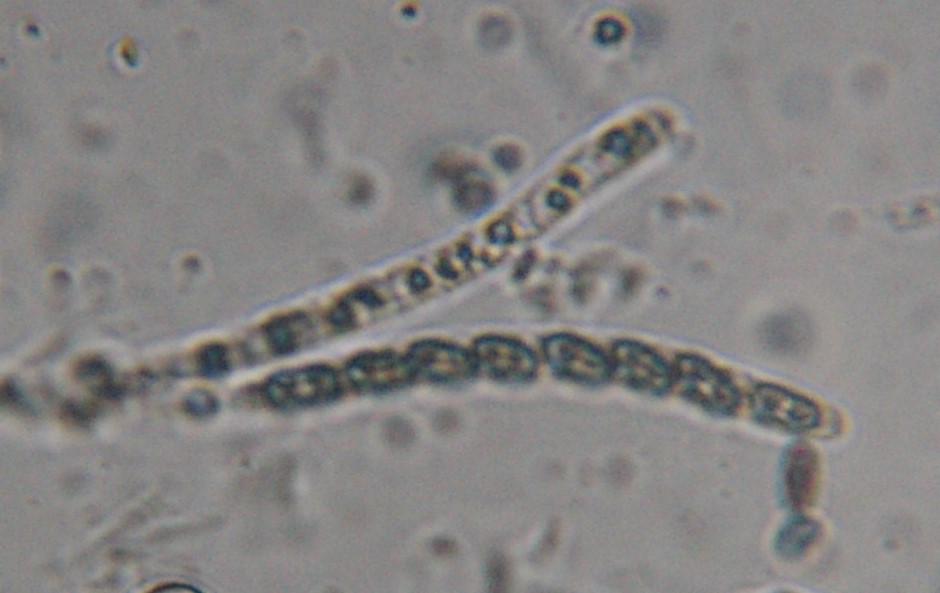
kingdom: Fungi
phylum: Ascomycota
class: Sordariomycetes
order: Xylariales
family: Lopadostomataceae
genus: Lopadostoma
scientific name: Lopadostoma
